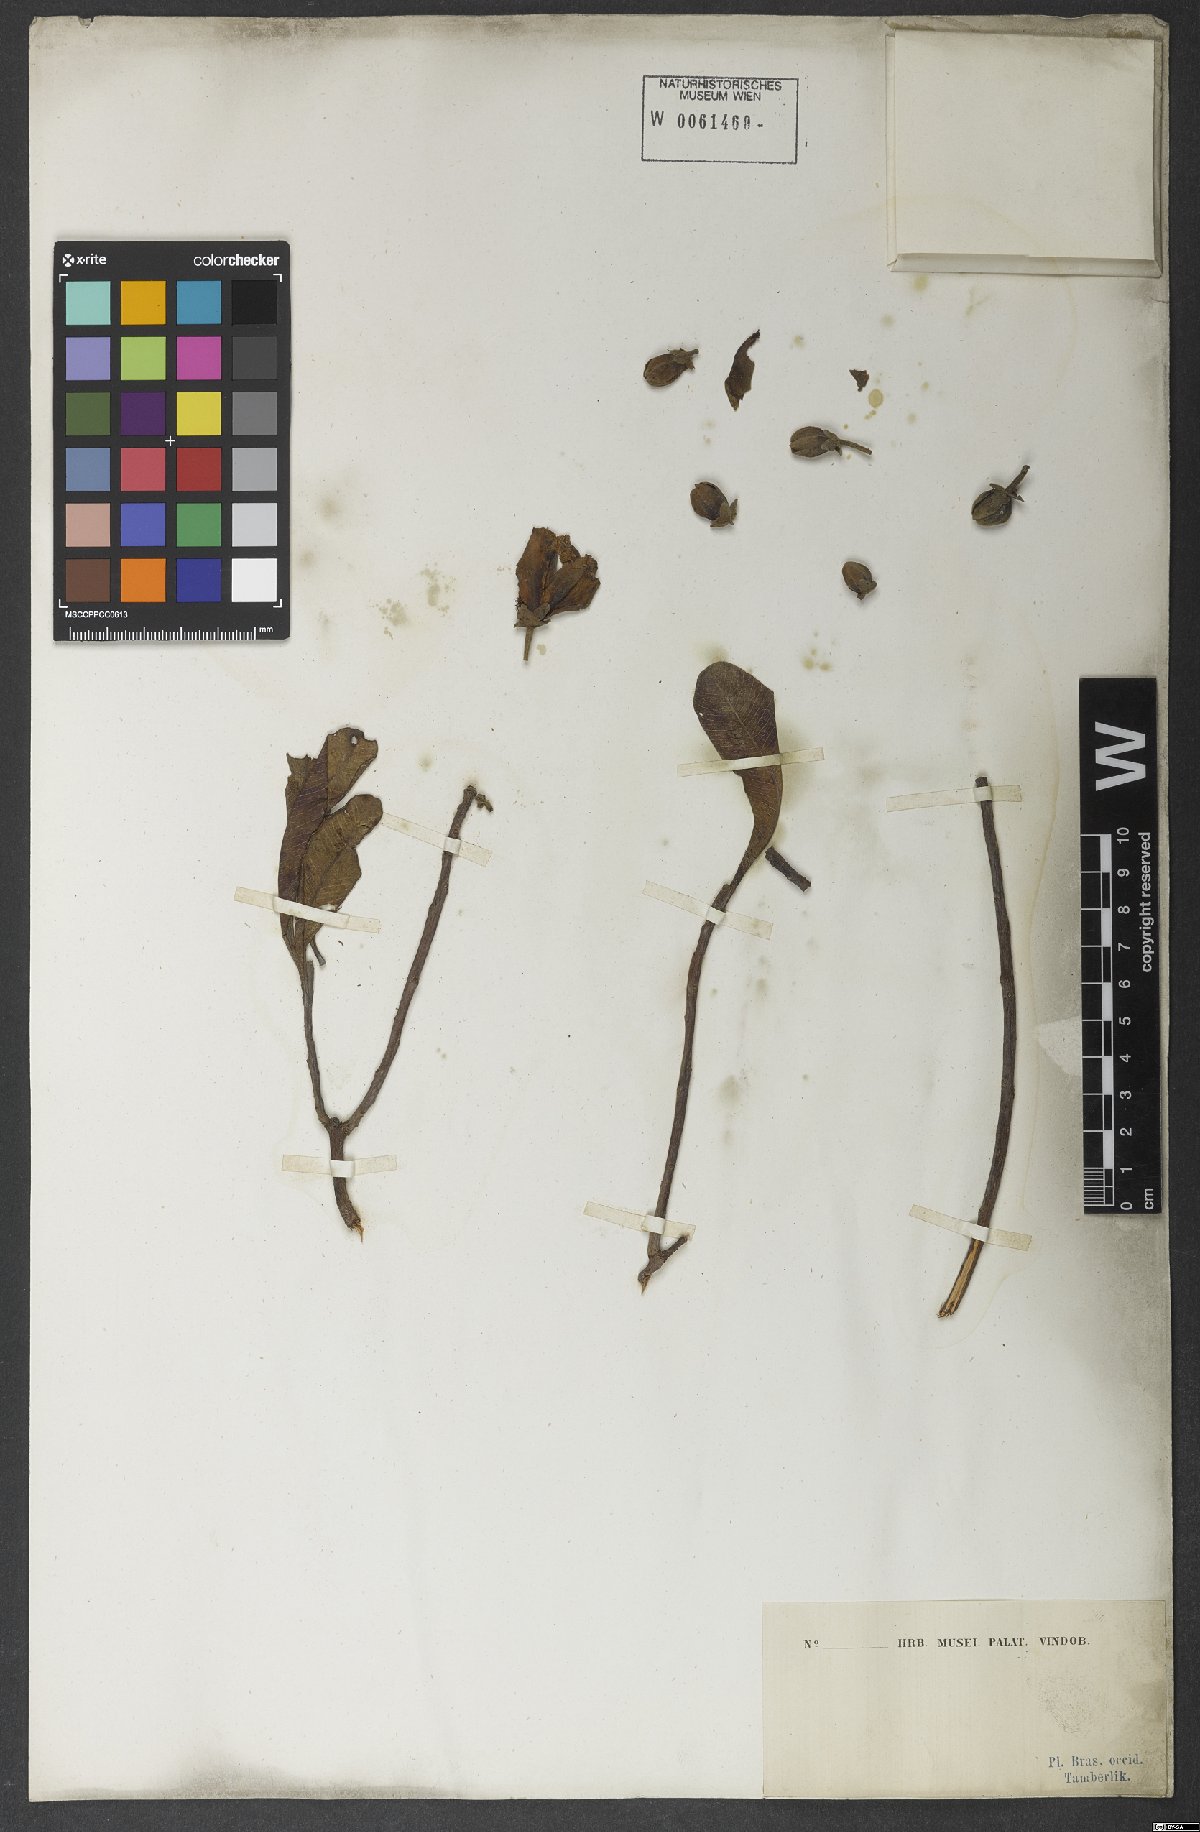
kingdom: Plantae
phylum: Tracheophyta
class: Magnoliopsida
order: Malpighiales
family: Calophyllaceae
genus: Kielmeyera
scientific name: Kielmeyera rubriflora
